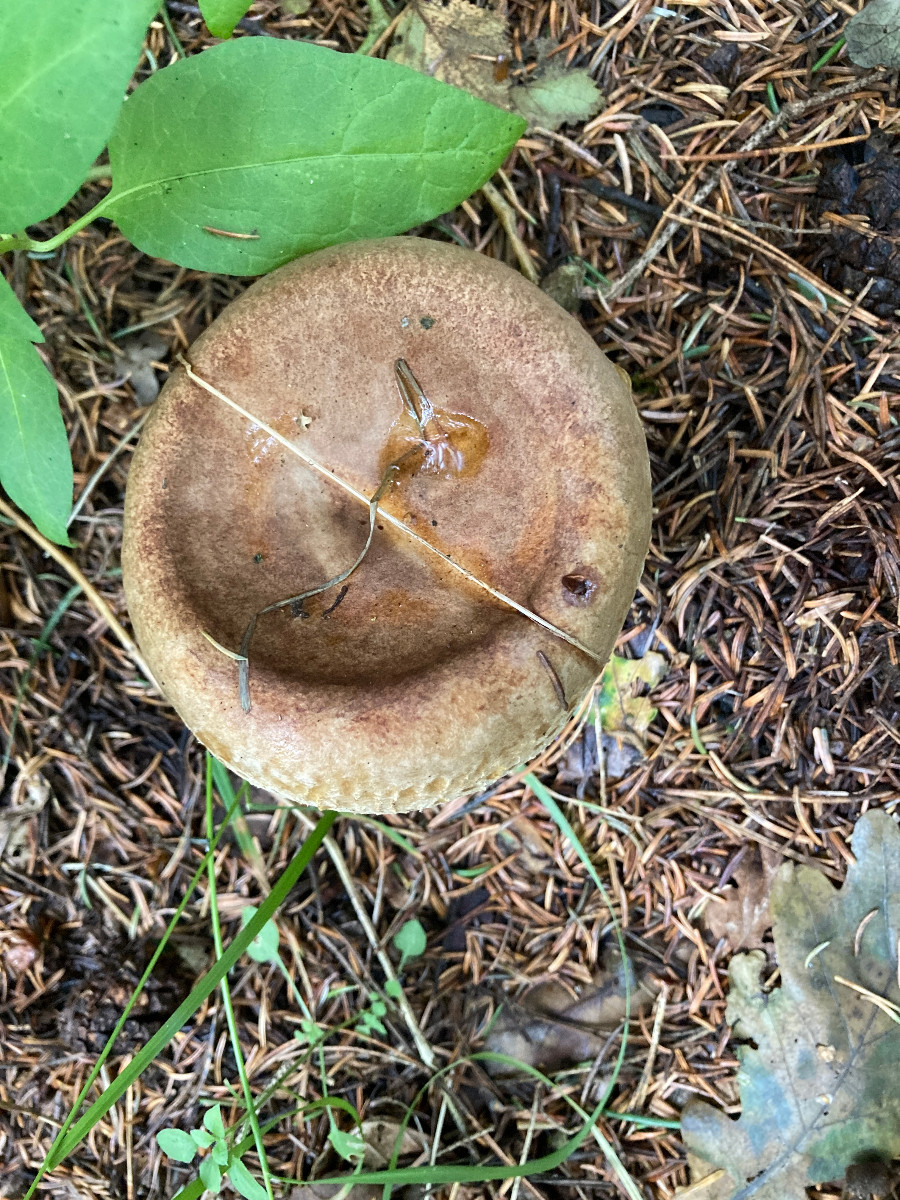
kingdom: Fungi
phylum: Basidiomycota
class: Agaricomycetes
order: Boletales
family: Paxillaceae
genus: Paxillus
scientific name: Paxillus involutus
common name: almindelig netbladhat
